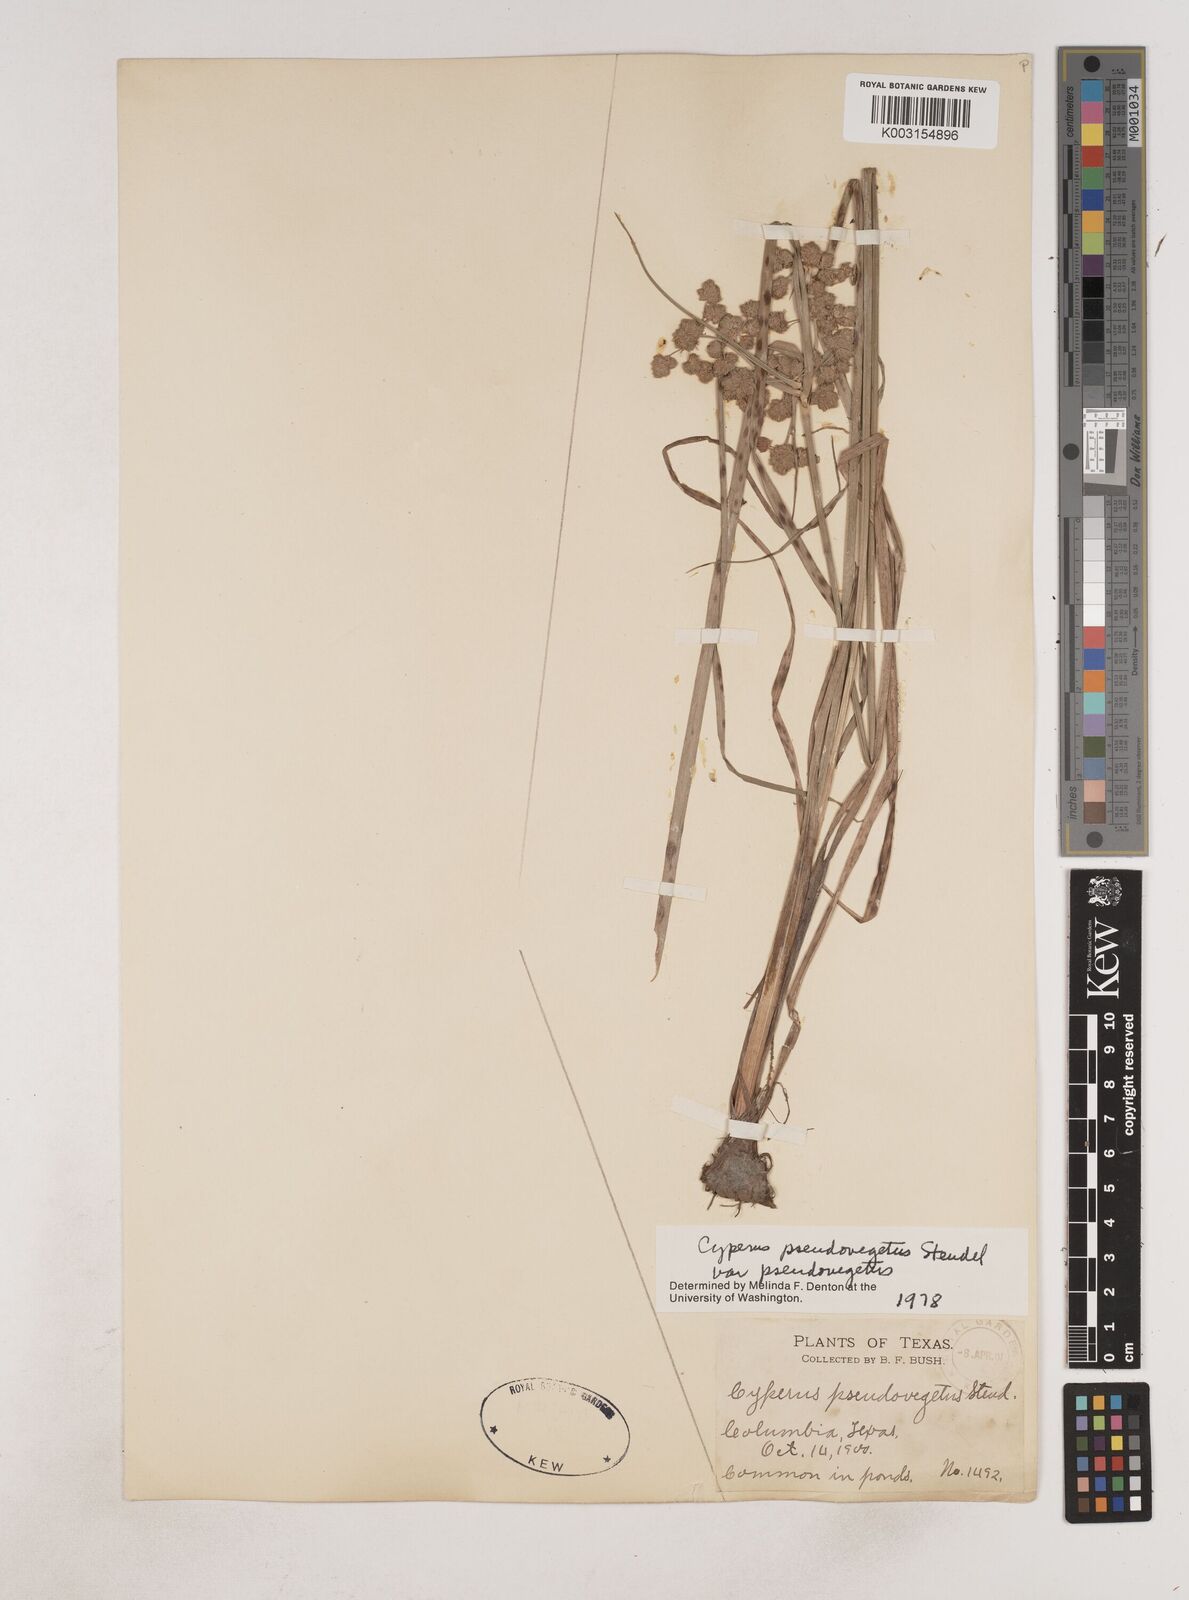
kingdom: Plantae
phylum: Tracheophyta
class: Liliopsida
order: Poales
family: Cyperaceae
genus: Cyperus
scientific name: Cyperus pseudovegetus
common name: Marsh flat sedge
